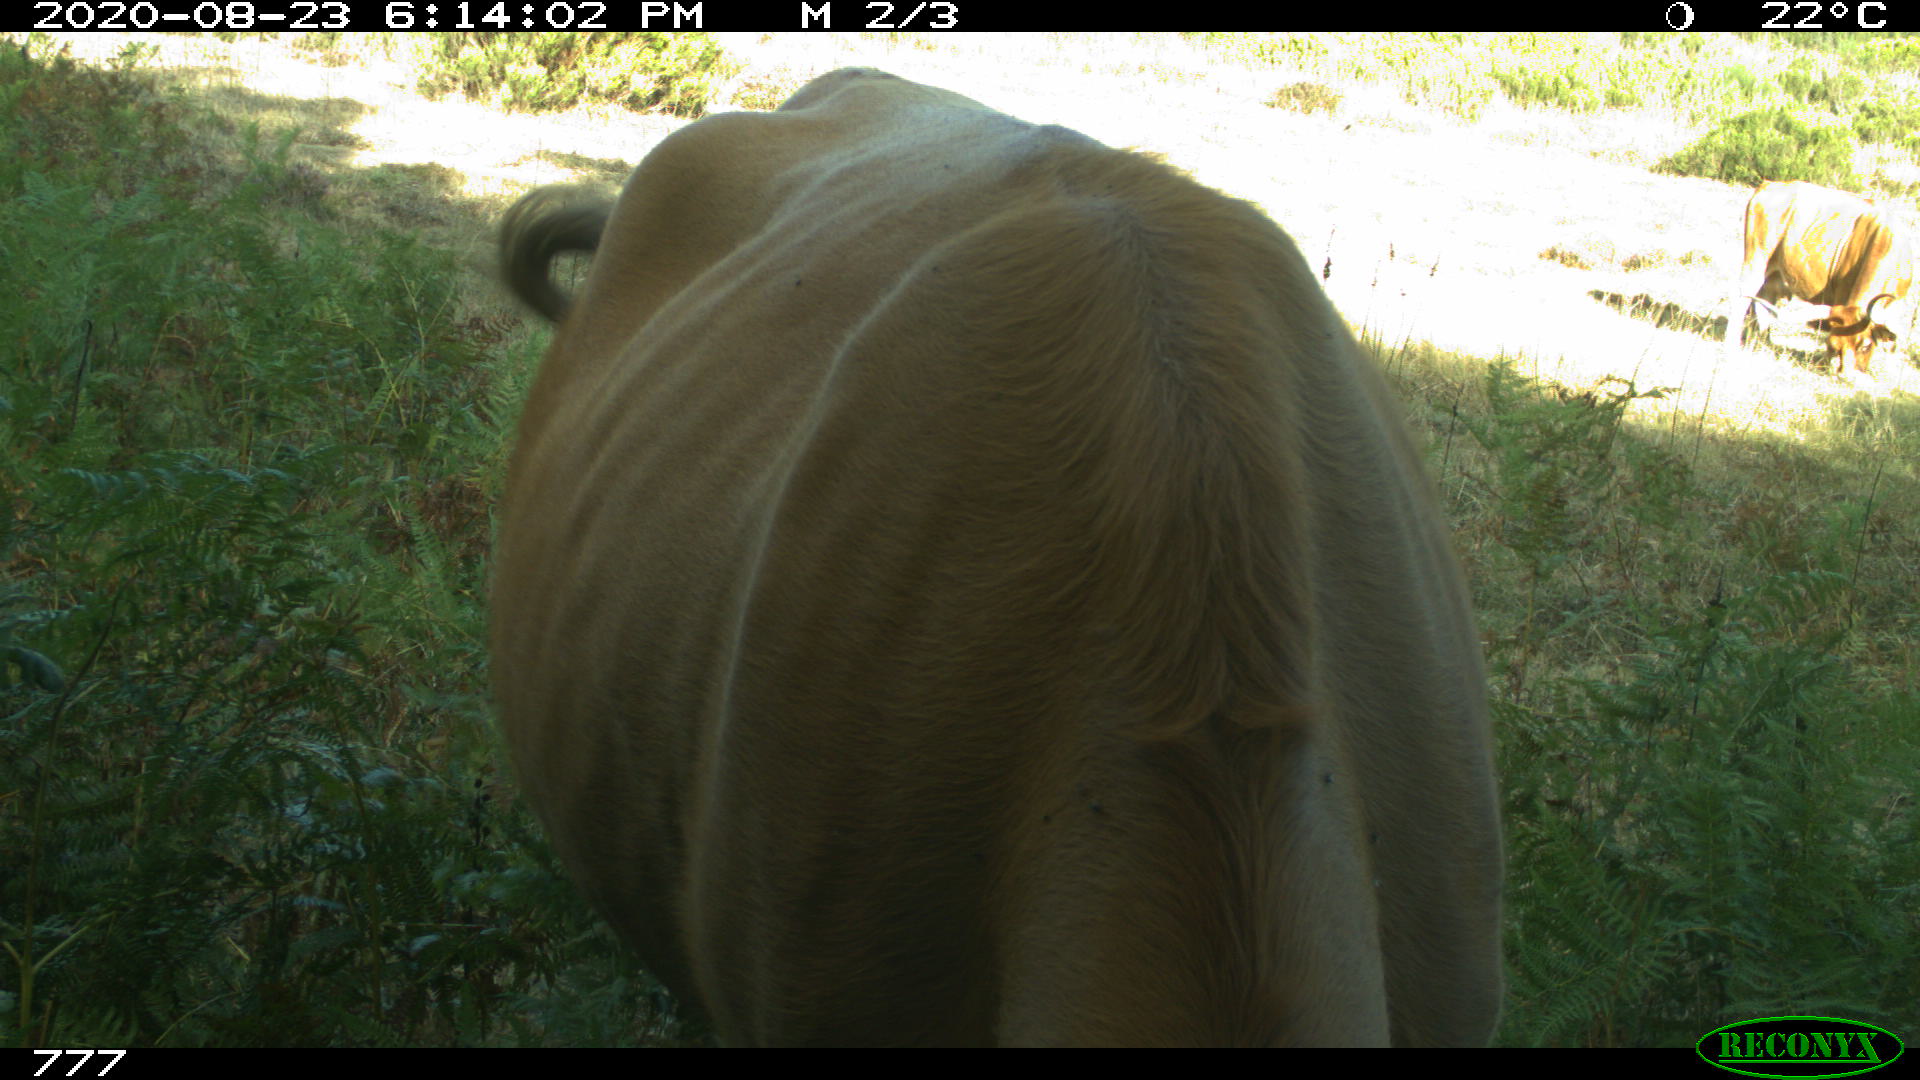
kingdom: Animalia
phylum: Chordata
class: Mammalia
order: Artiodactyla
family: Bovidae
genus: Bos
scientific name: Bos taurus
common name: Domesticated cattle
